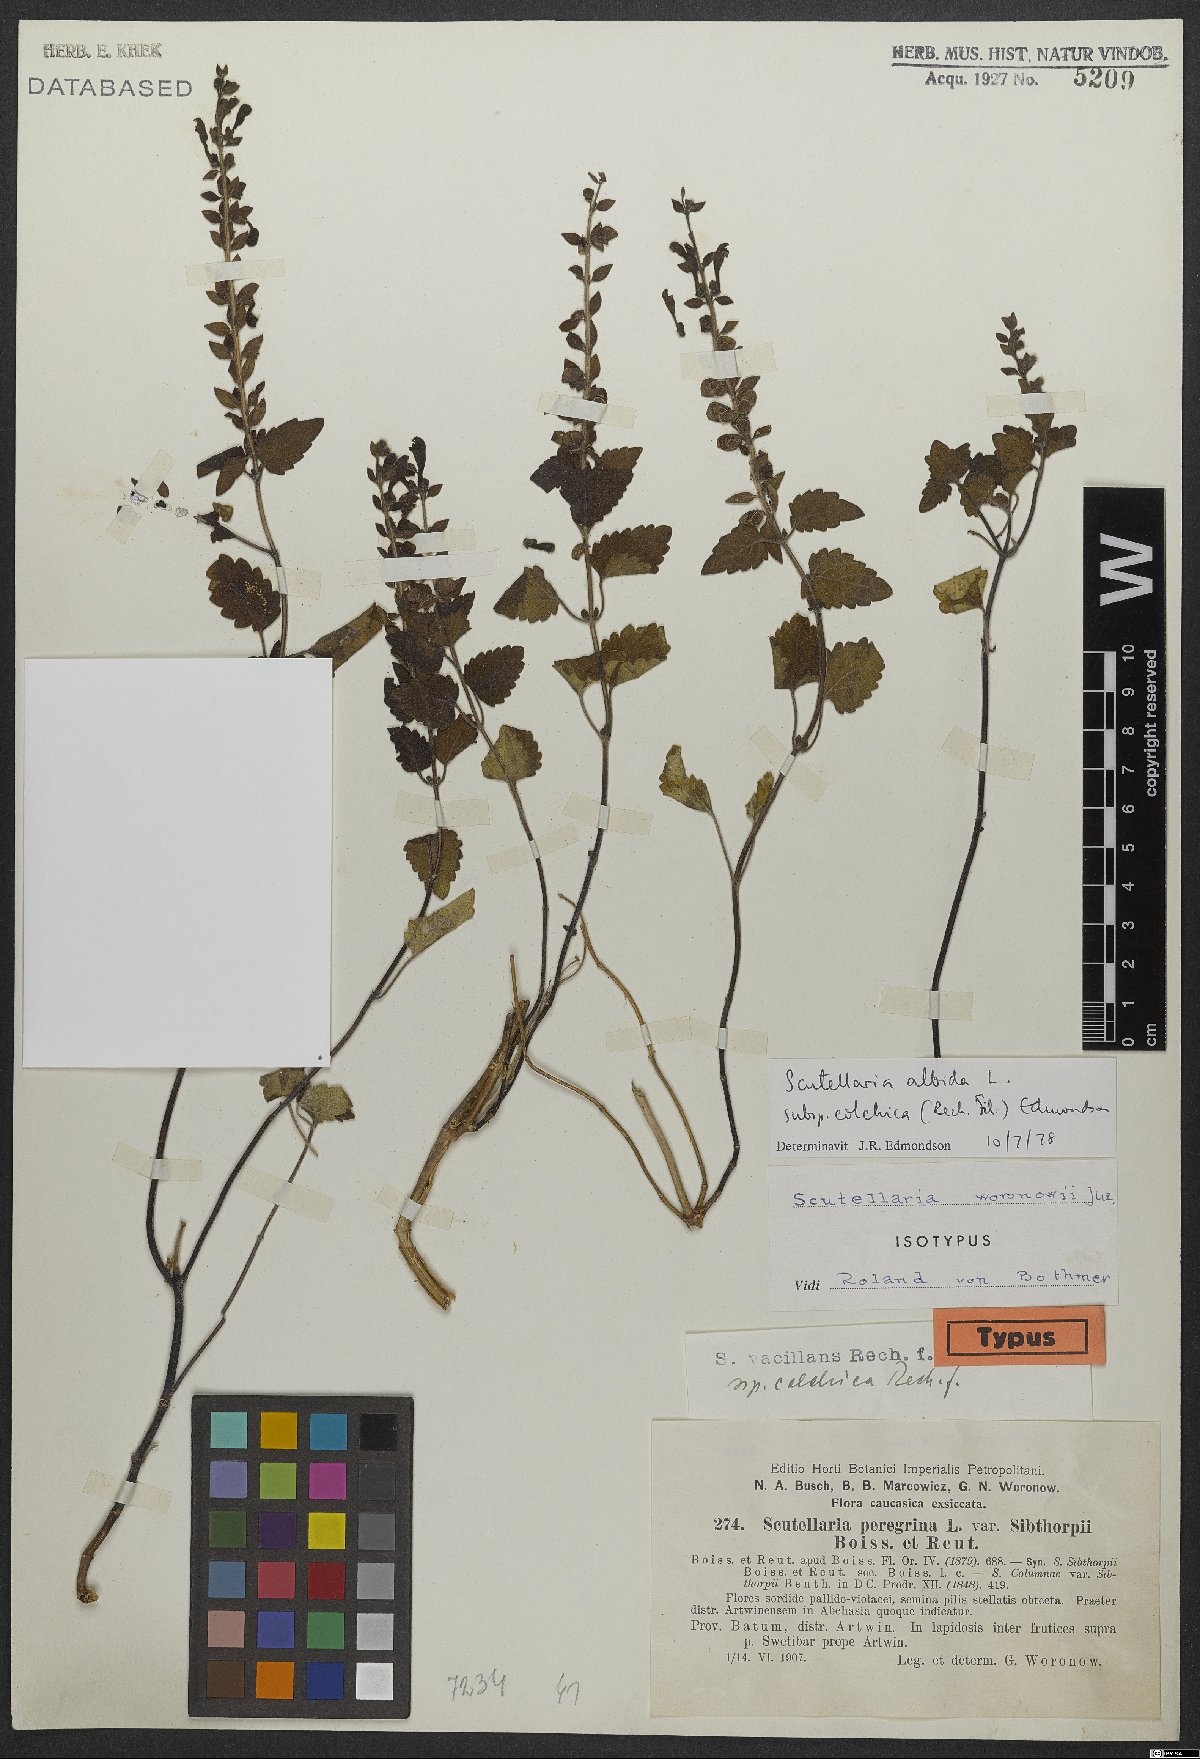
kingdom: Plantae
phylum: Tracheophyta
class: Magnoliopsida
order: Lamiales
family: Lamiaceae
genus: Scutellaria
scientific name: Scutellaria albida
